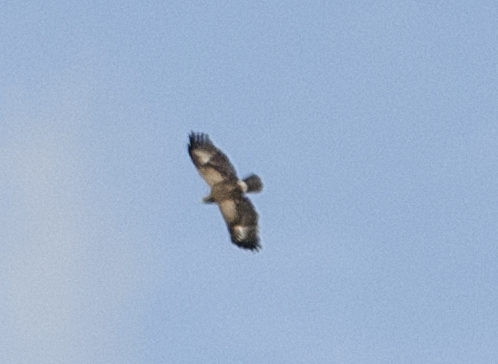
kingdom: Animalia
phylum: Chordata
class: Aves
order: Accipitriformes
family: Accipitridae
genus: Aquila
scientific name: Aquila clanga
